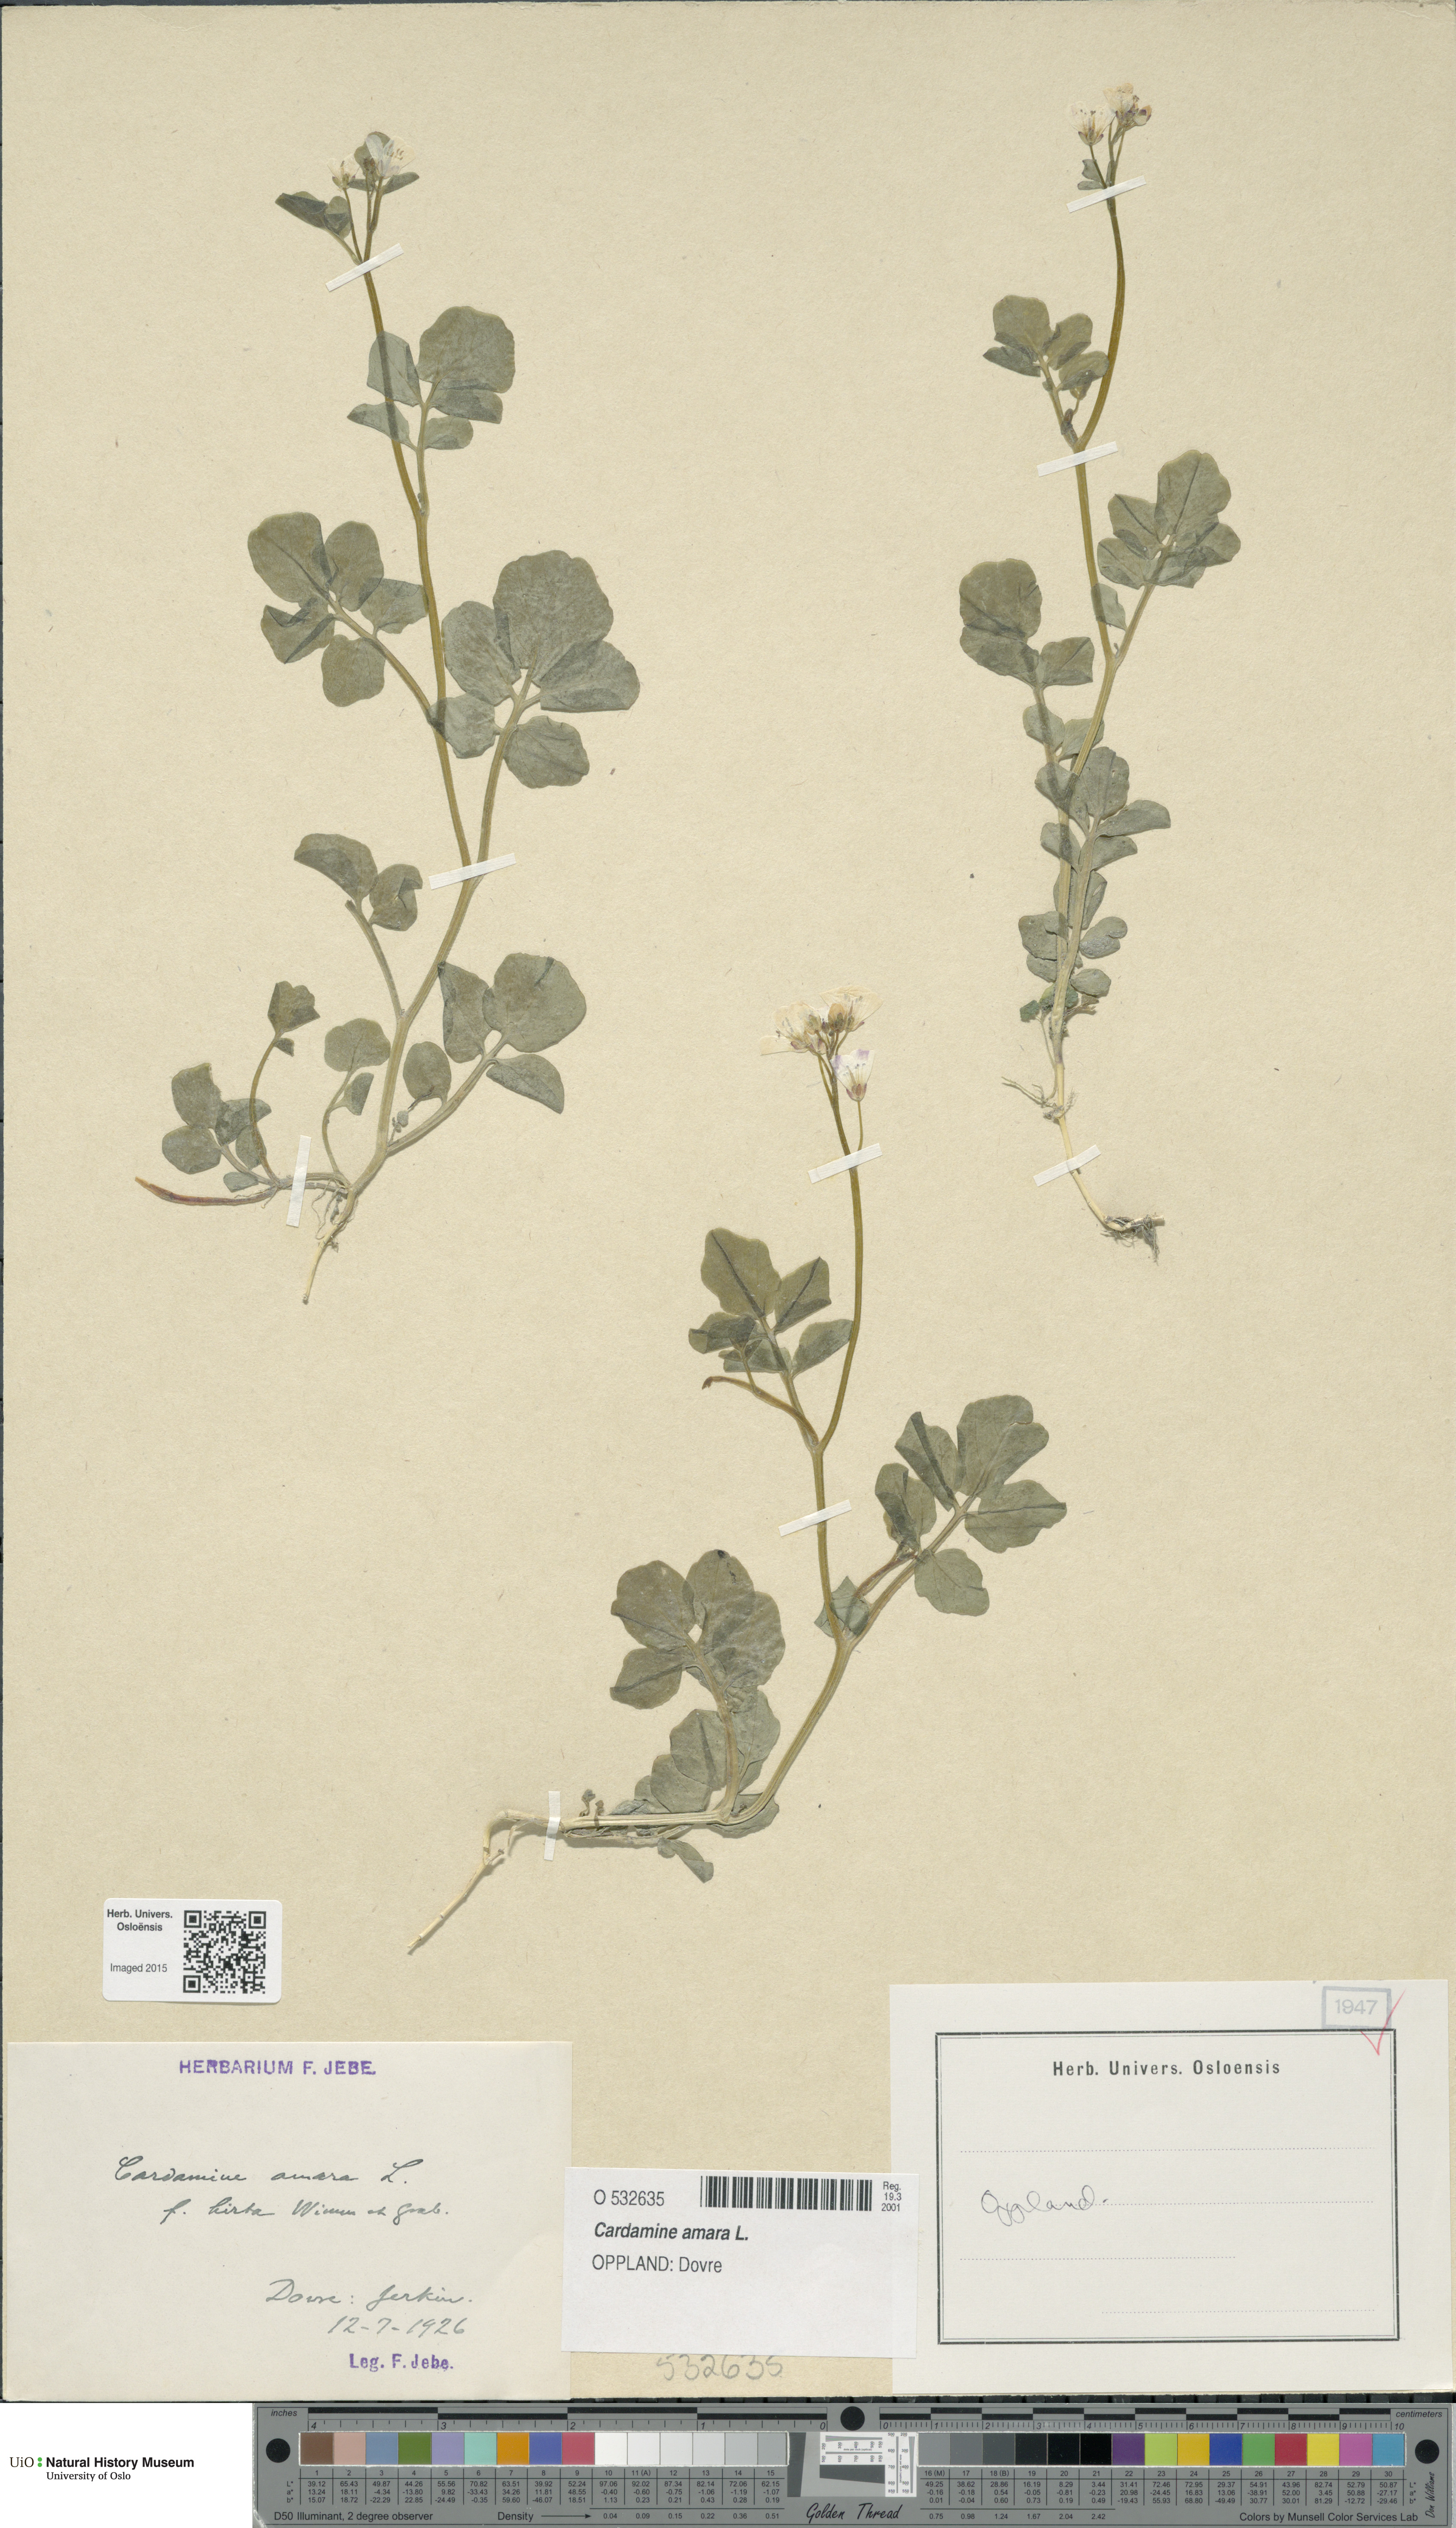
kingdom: Plantae
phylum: Tracheophyta
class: Magnoliopsida
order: Brassicales
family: Brassicaceae
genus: Cardamine
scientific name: Cardamine amara
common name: Large bitter-cress
